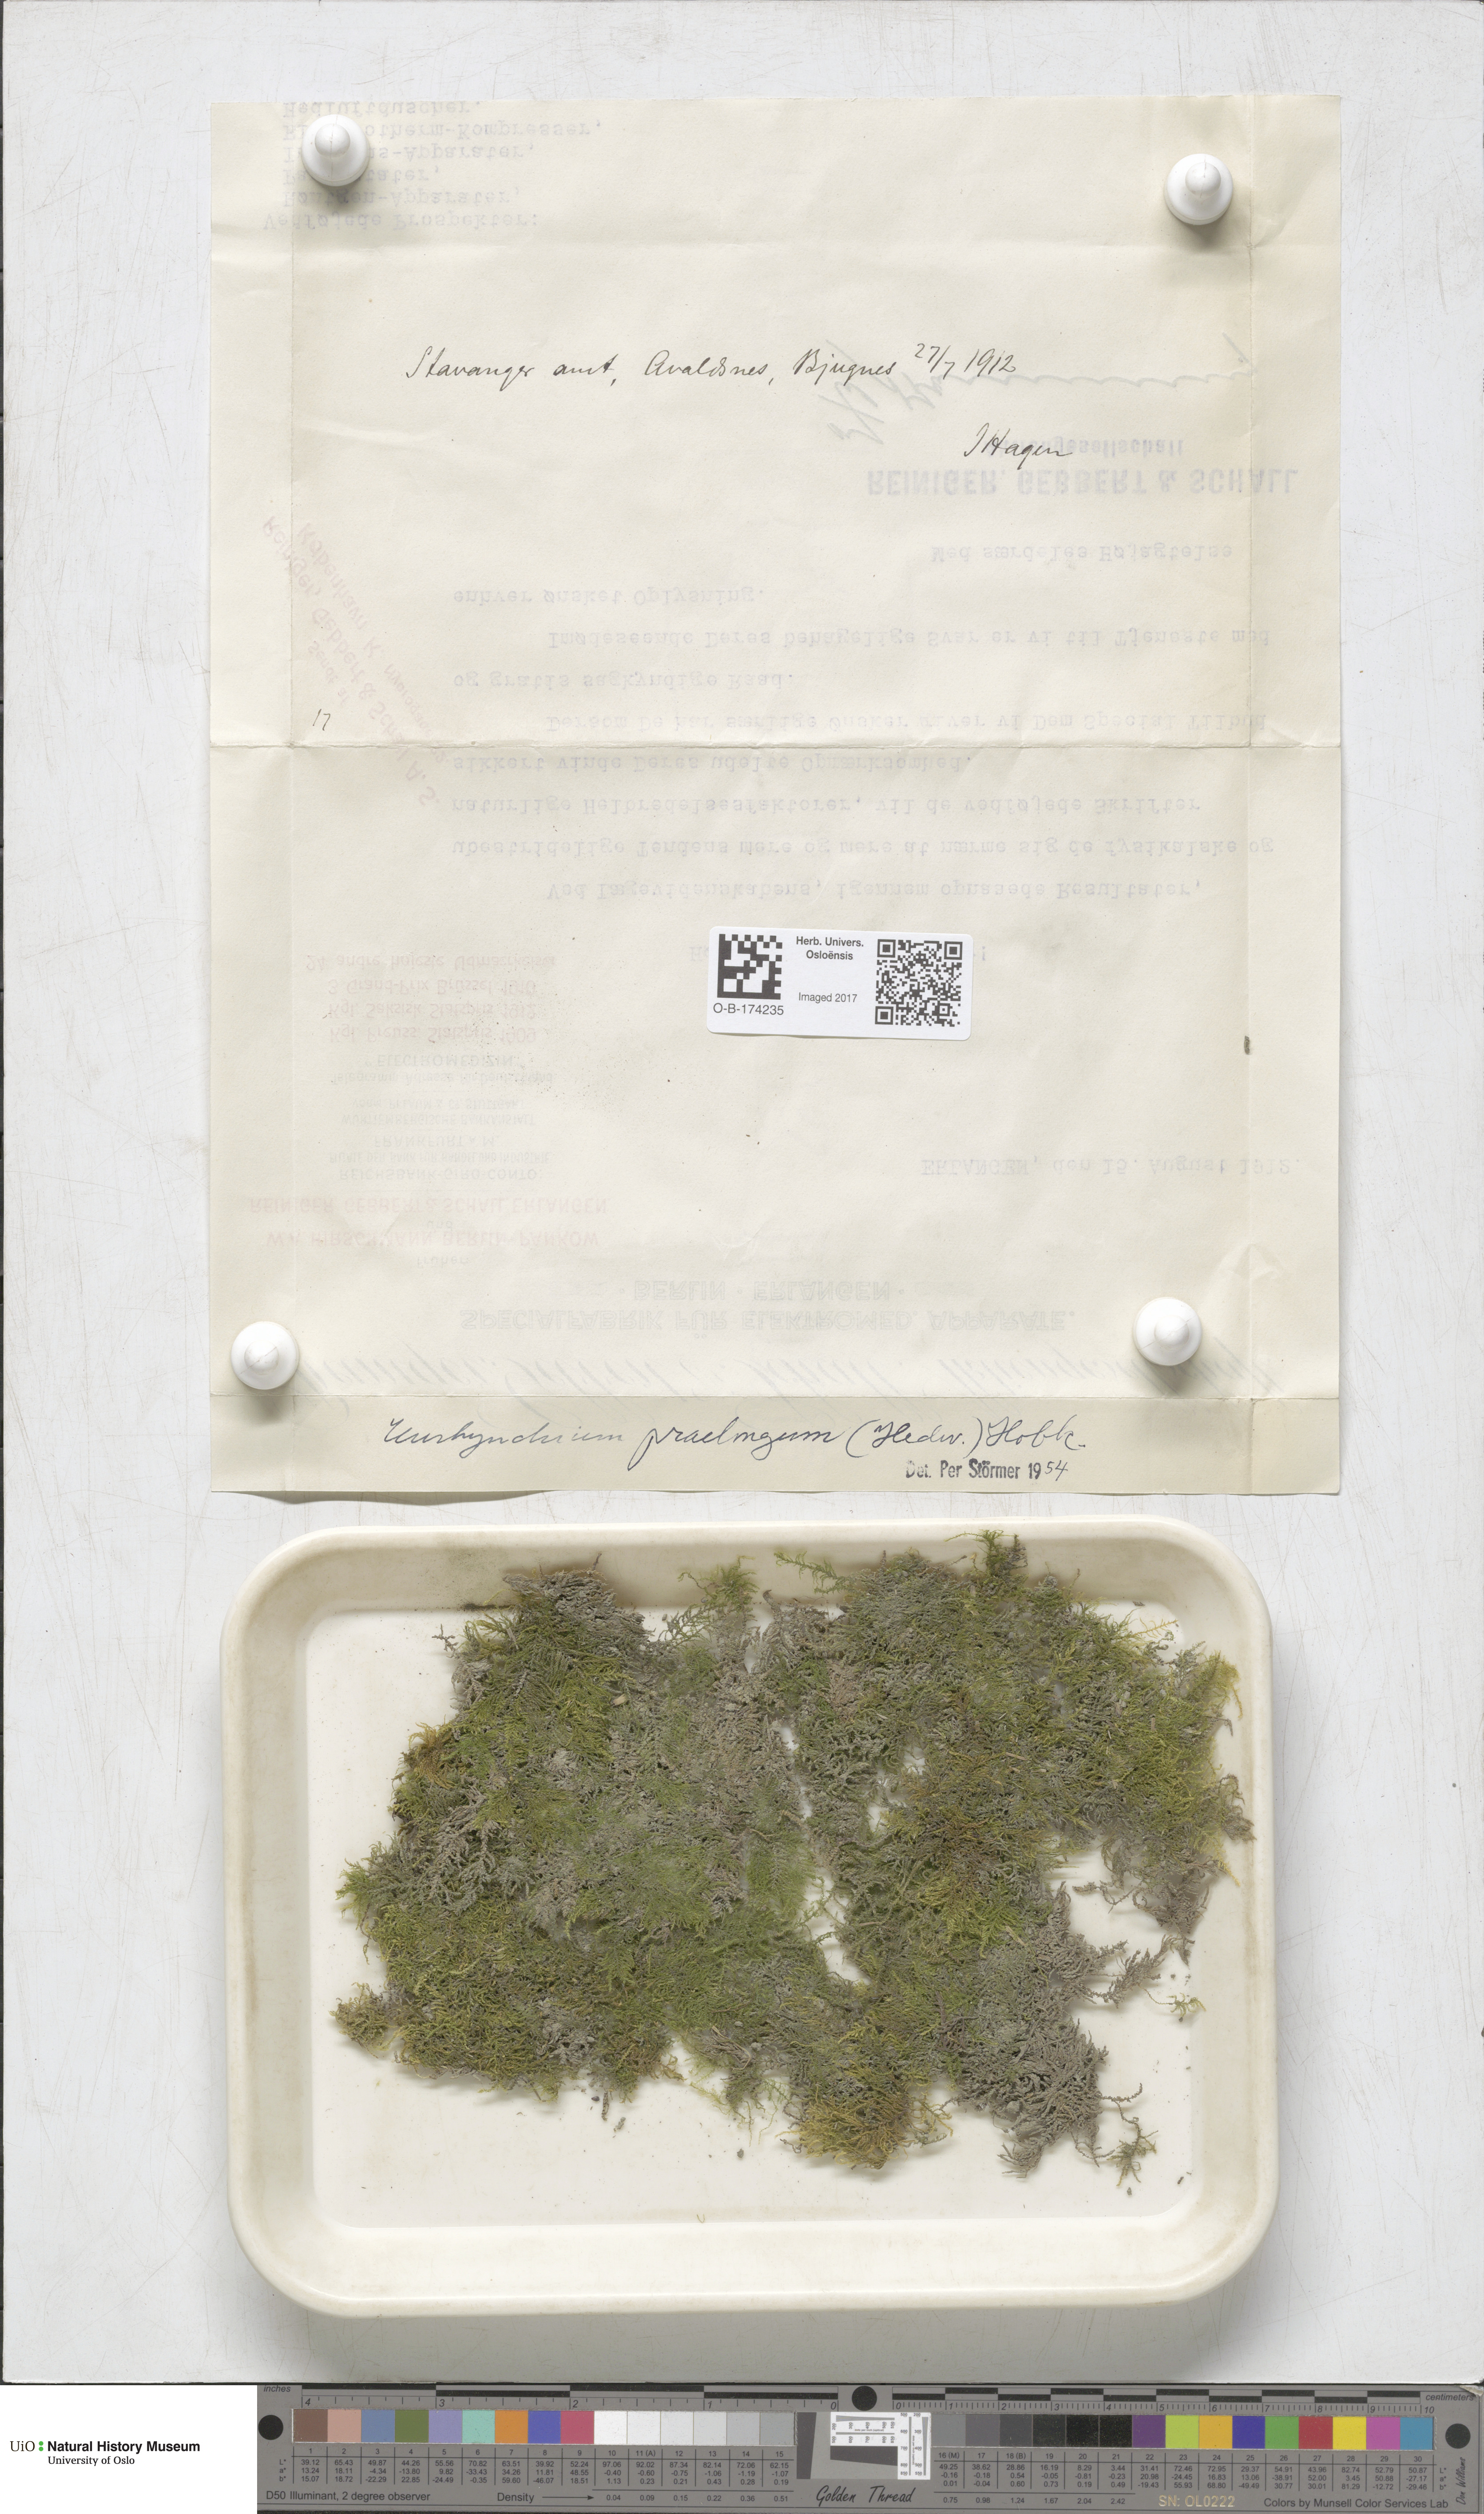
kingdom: Plantae
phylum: Bryophyta
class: Bryopsida
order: Hypnales
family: Brachytheciaceae
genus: Kindbergia
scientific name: Kindbergia praelonga
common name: Slender beaked moss
